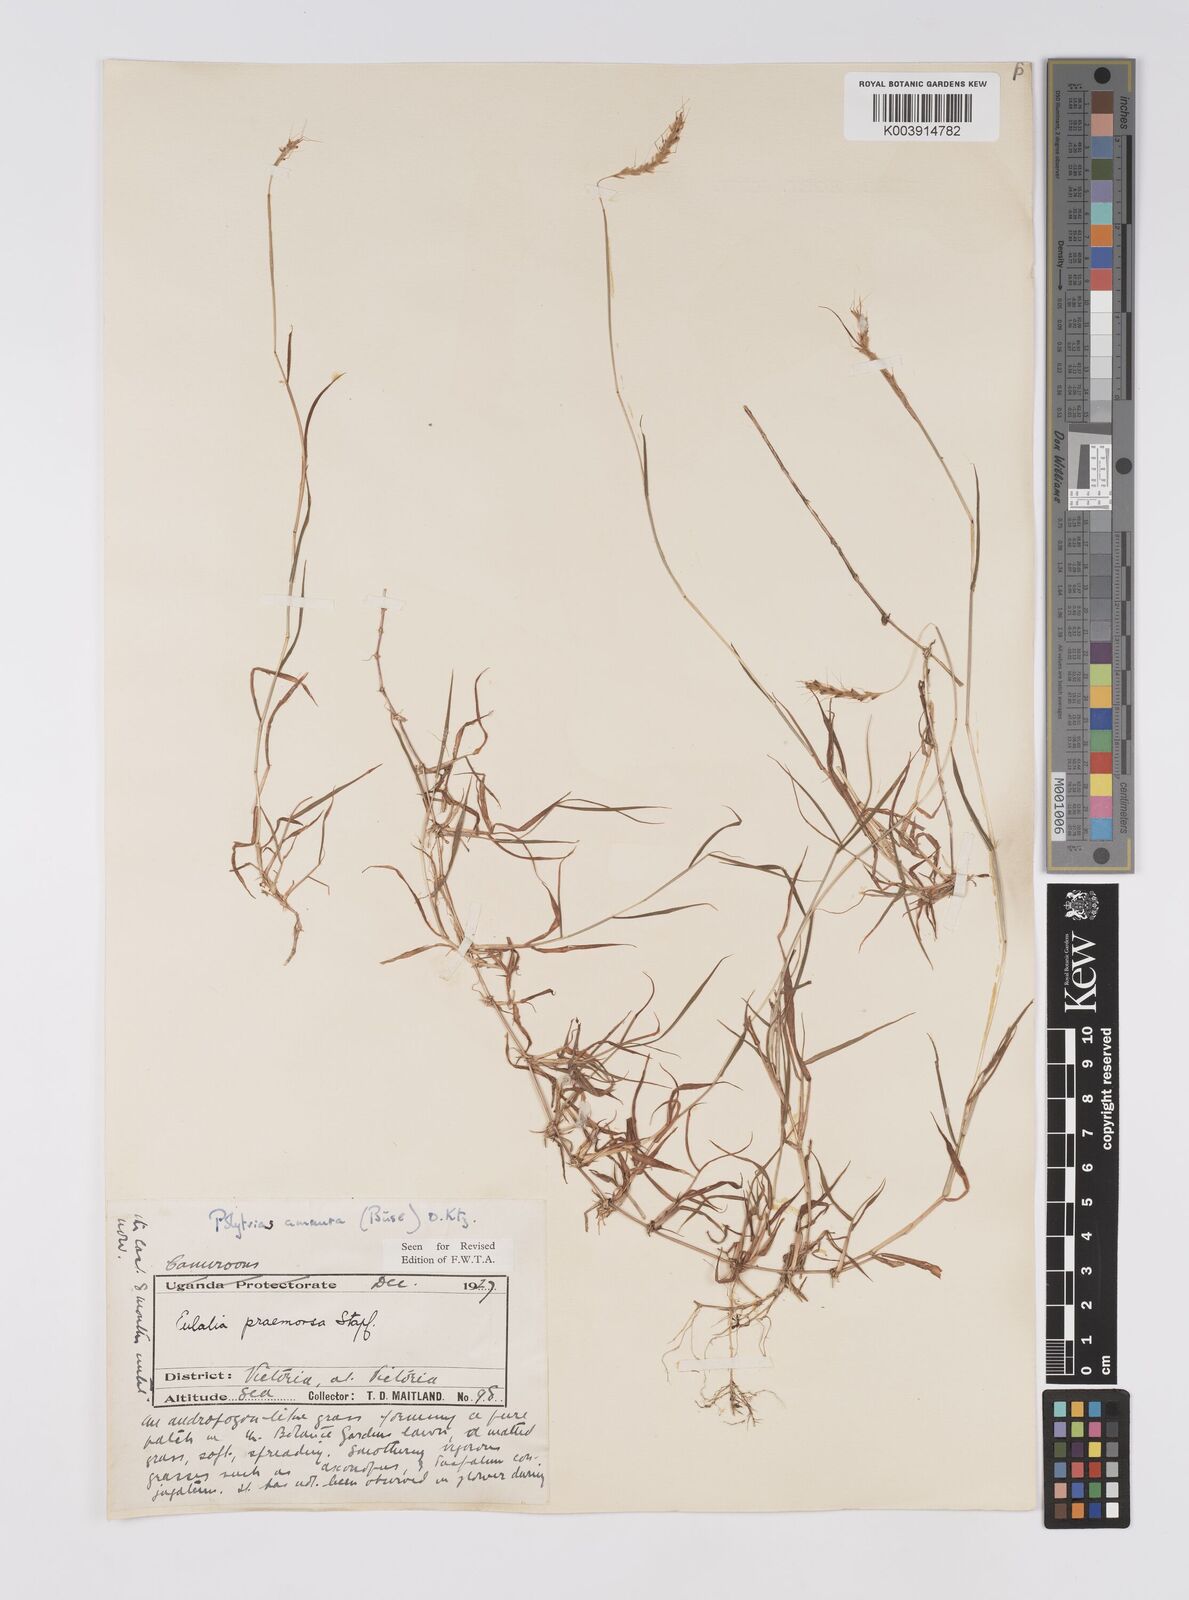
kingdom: Plantae
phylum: Tracheophyta
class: Liliopsida
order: Poales
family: Poaceae
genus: Polytrias
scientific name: Polytrias indica
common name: Indian murainagrass
